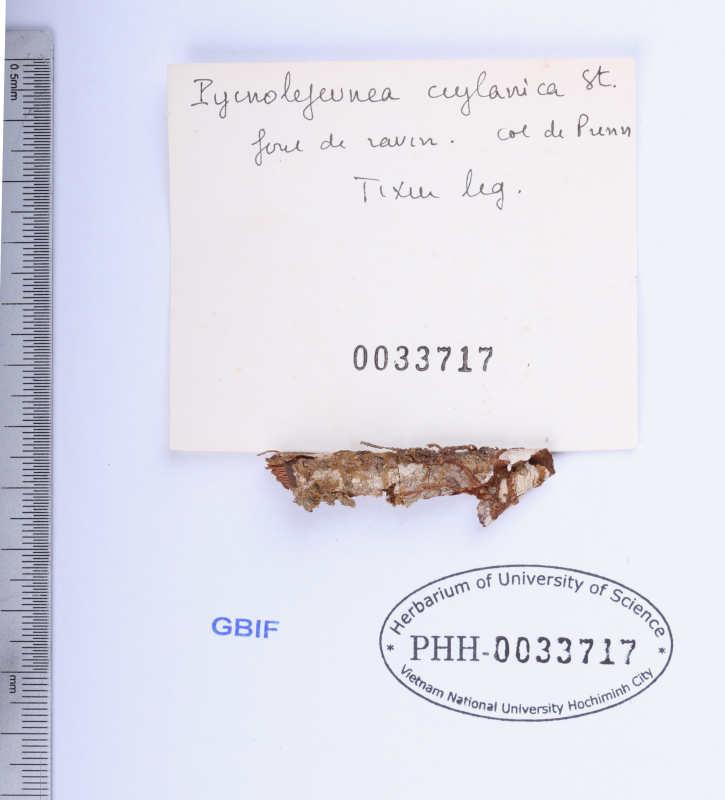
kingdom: Plantae
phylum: Marchantiophyta
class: Jungermanniopsida
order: Porellales
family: Lejeuneaceae
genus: Cheilolejeunea
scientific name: Cheilolejeunea ceylanica
